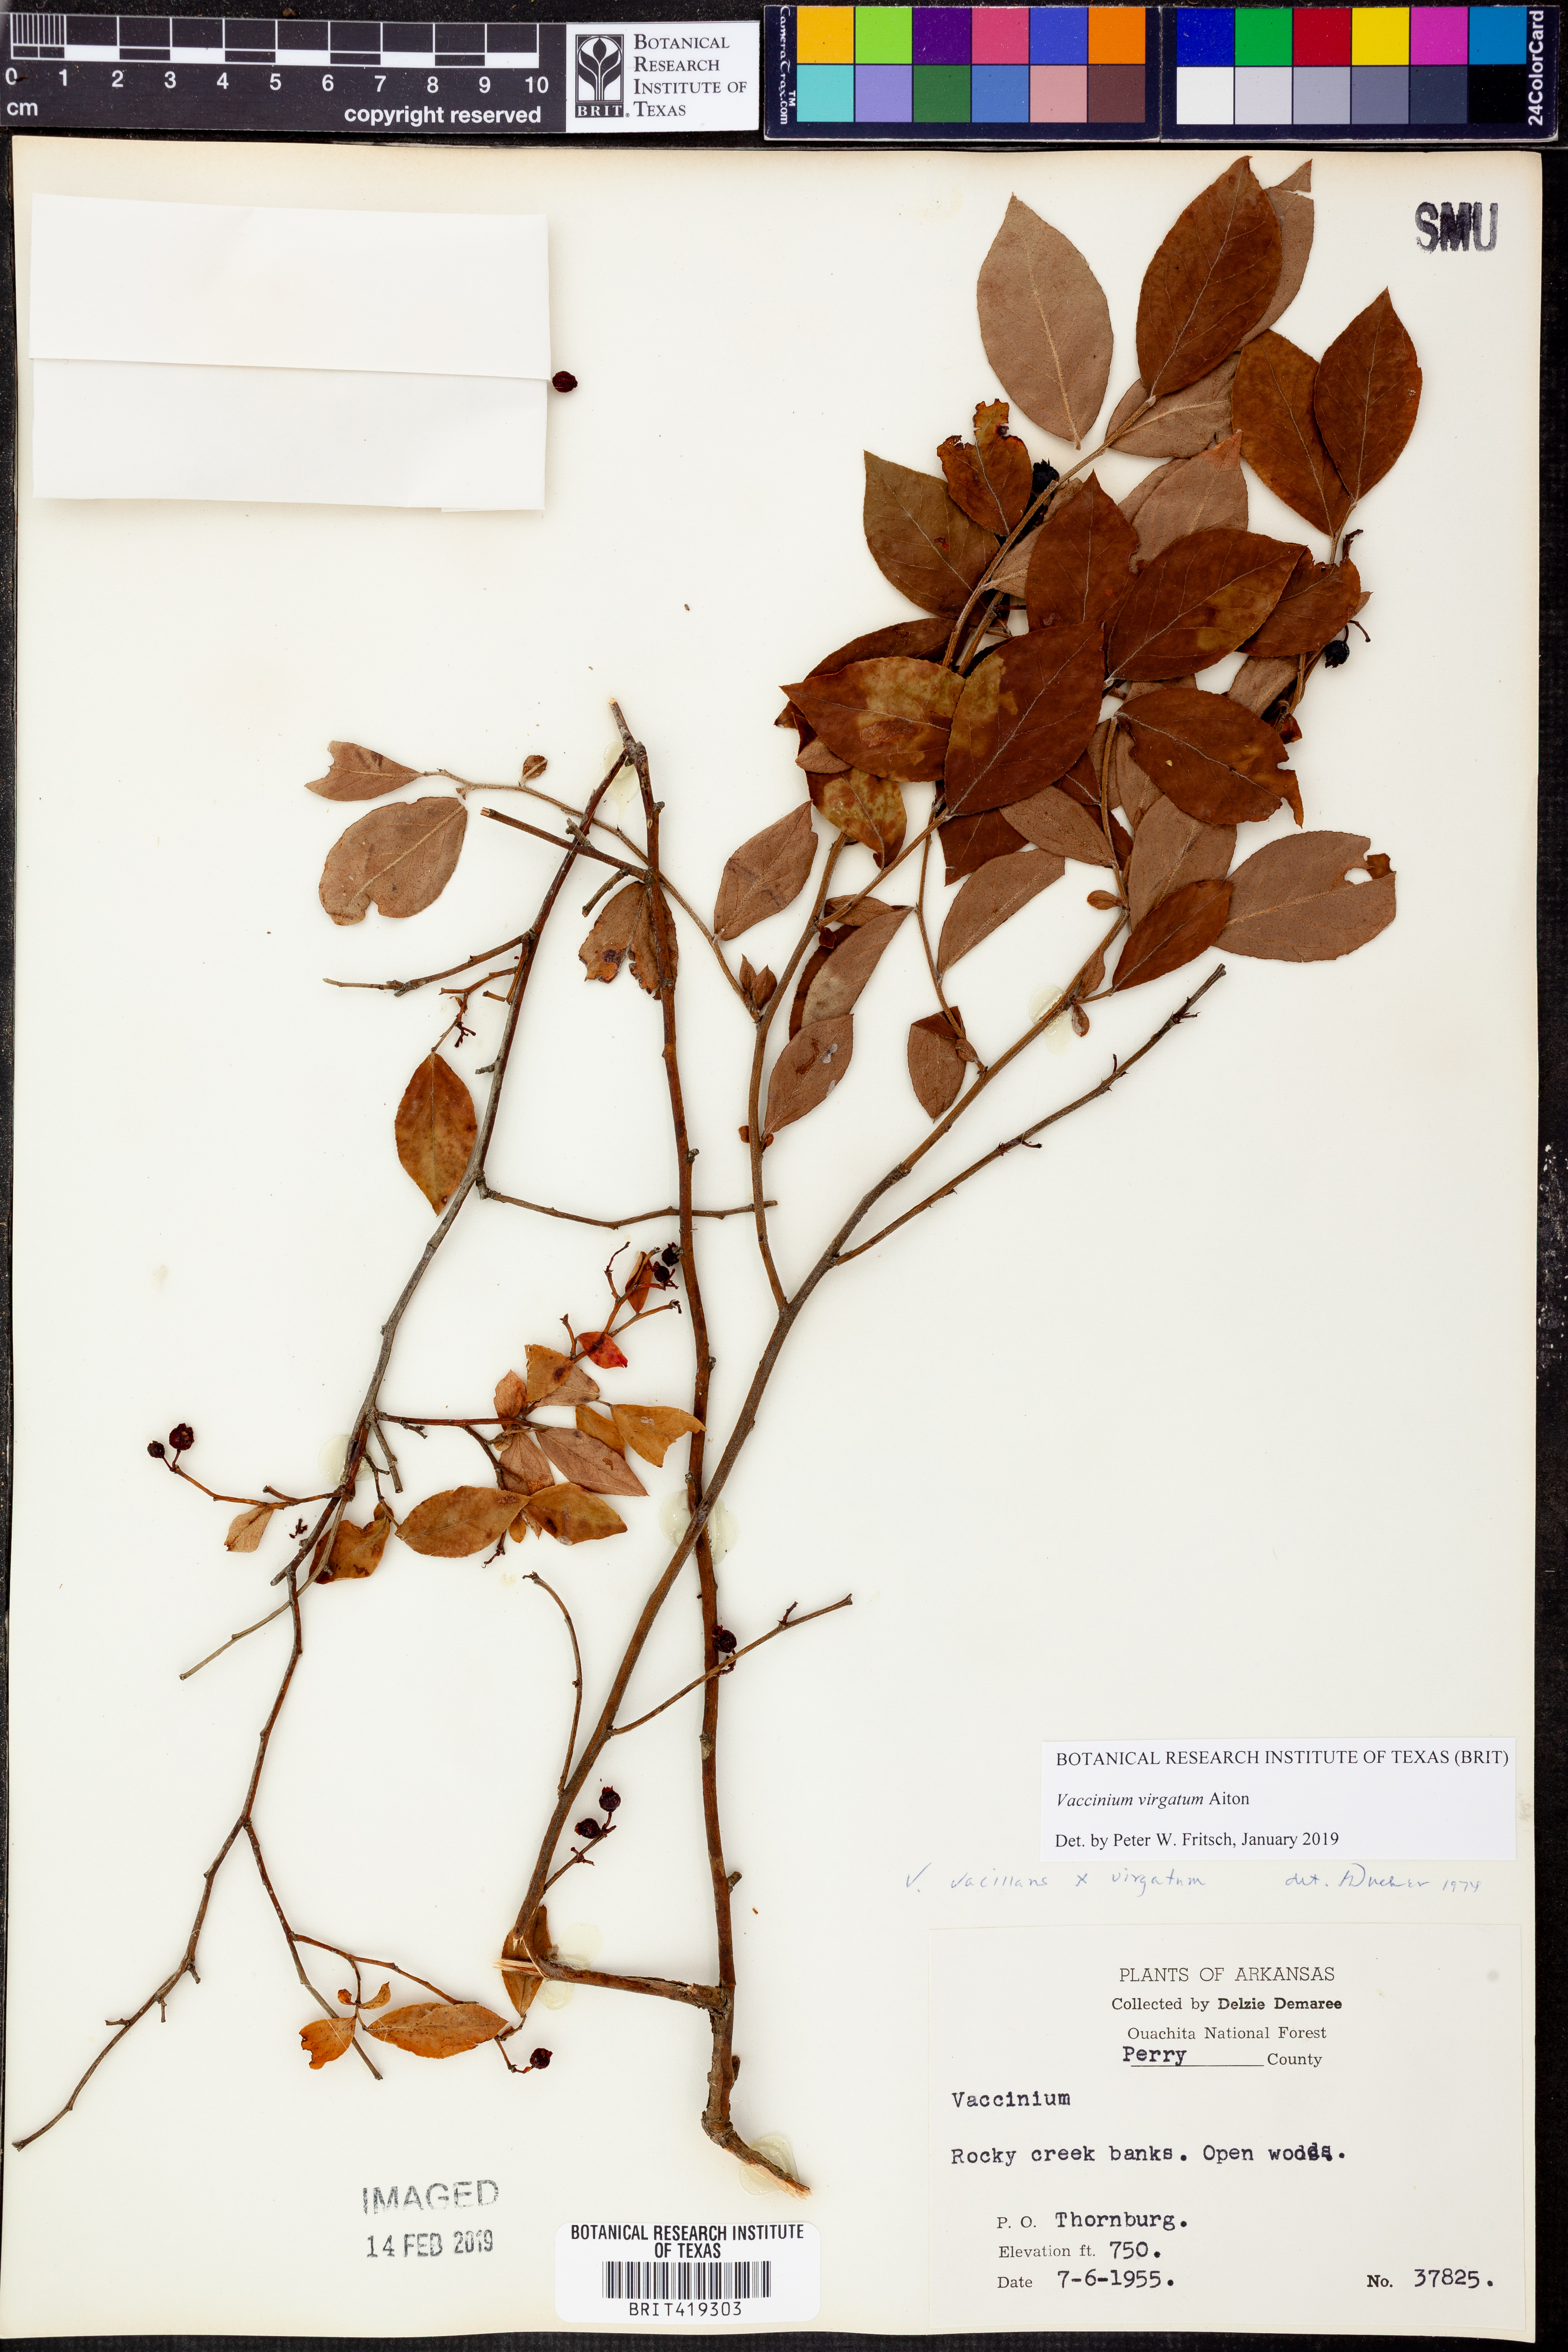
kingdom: Plantae
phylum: Tracheophyta
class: Magnoliopsida
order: Ericales
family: Ericaceae
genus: Vaccinium
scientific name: Vaccinium corymbosum
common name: Blueberry
